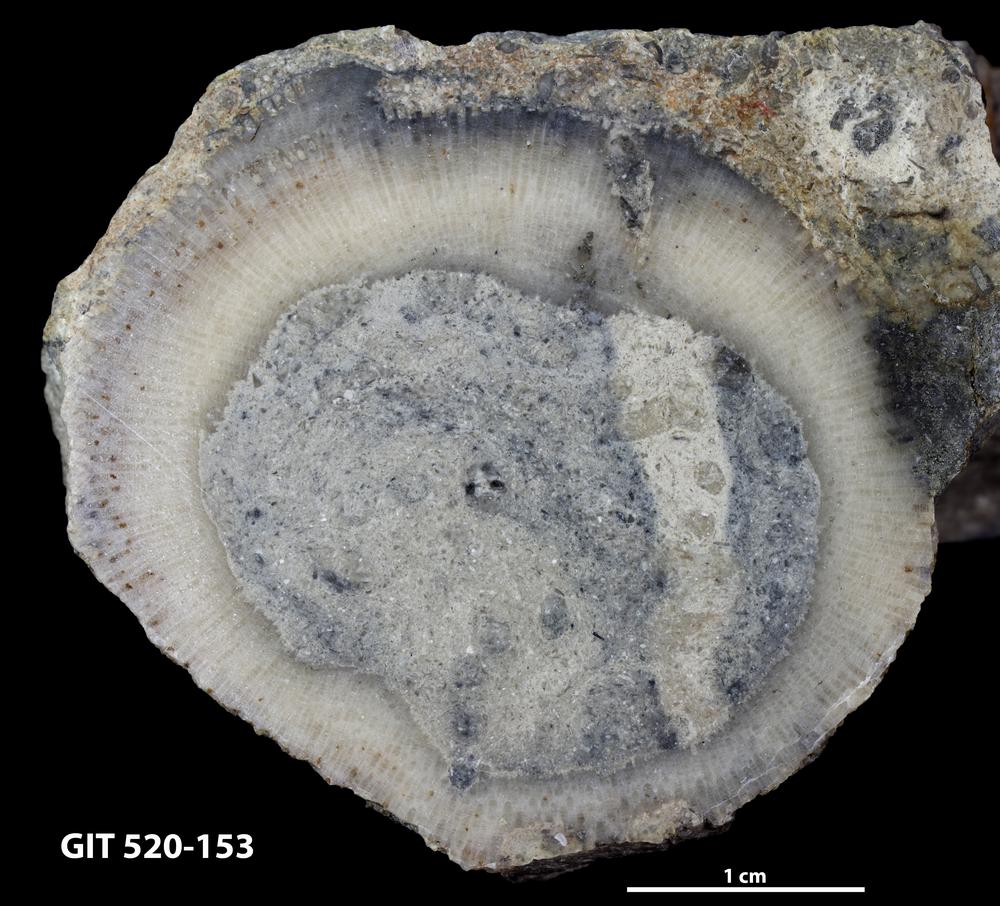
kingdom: Animalia
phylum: Bryozoa
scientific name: Bryozoa
